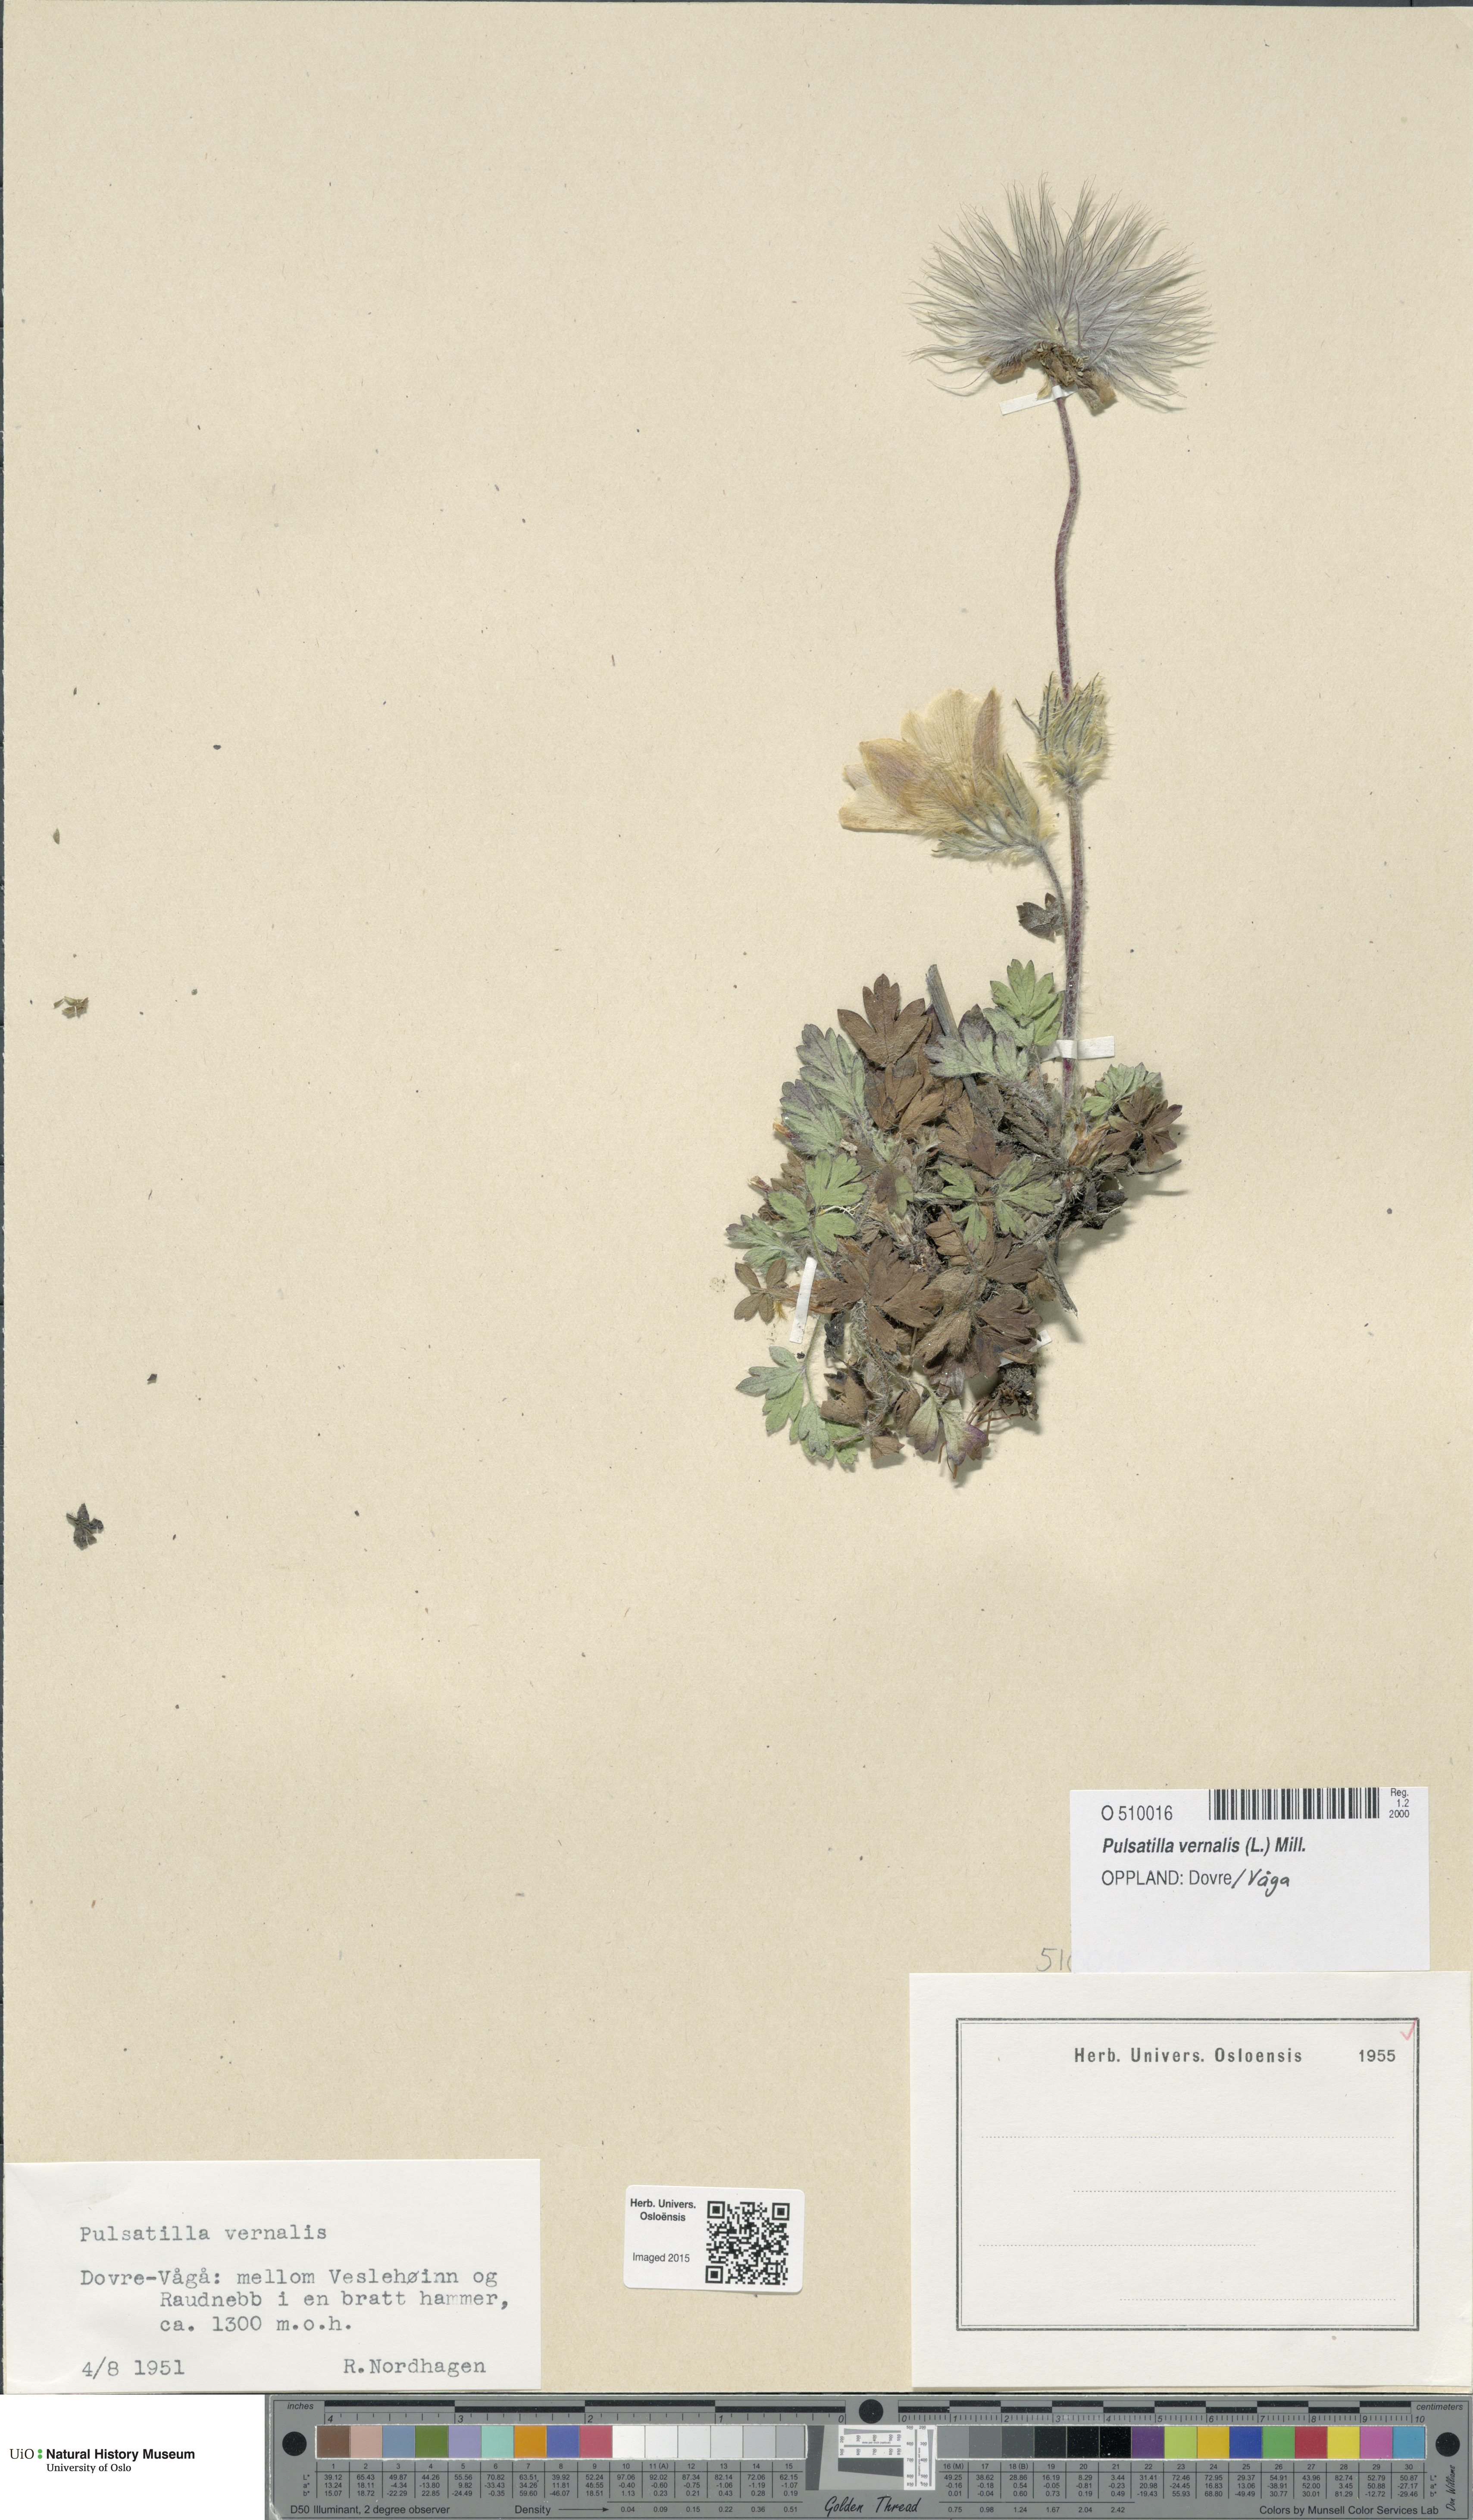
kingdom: Plantae
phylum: Tracheophyta
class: Magnoliopsida
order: Ranunculales
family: Ranunculaceae
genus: Pulsatilla
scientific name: Pulsatilla vernalis
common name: Spring pasque flower
